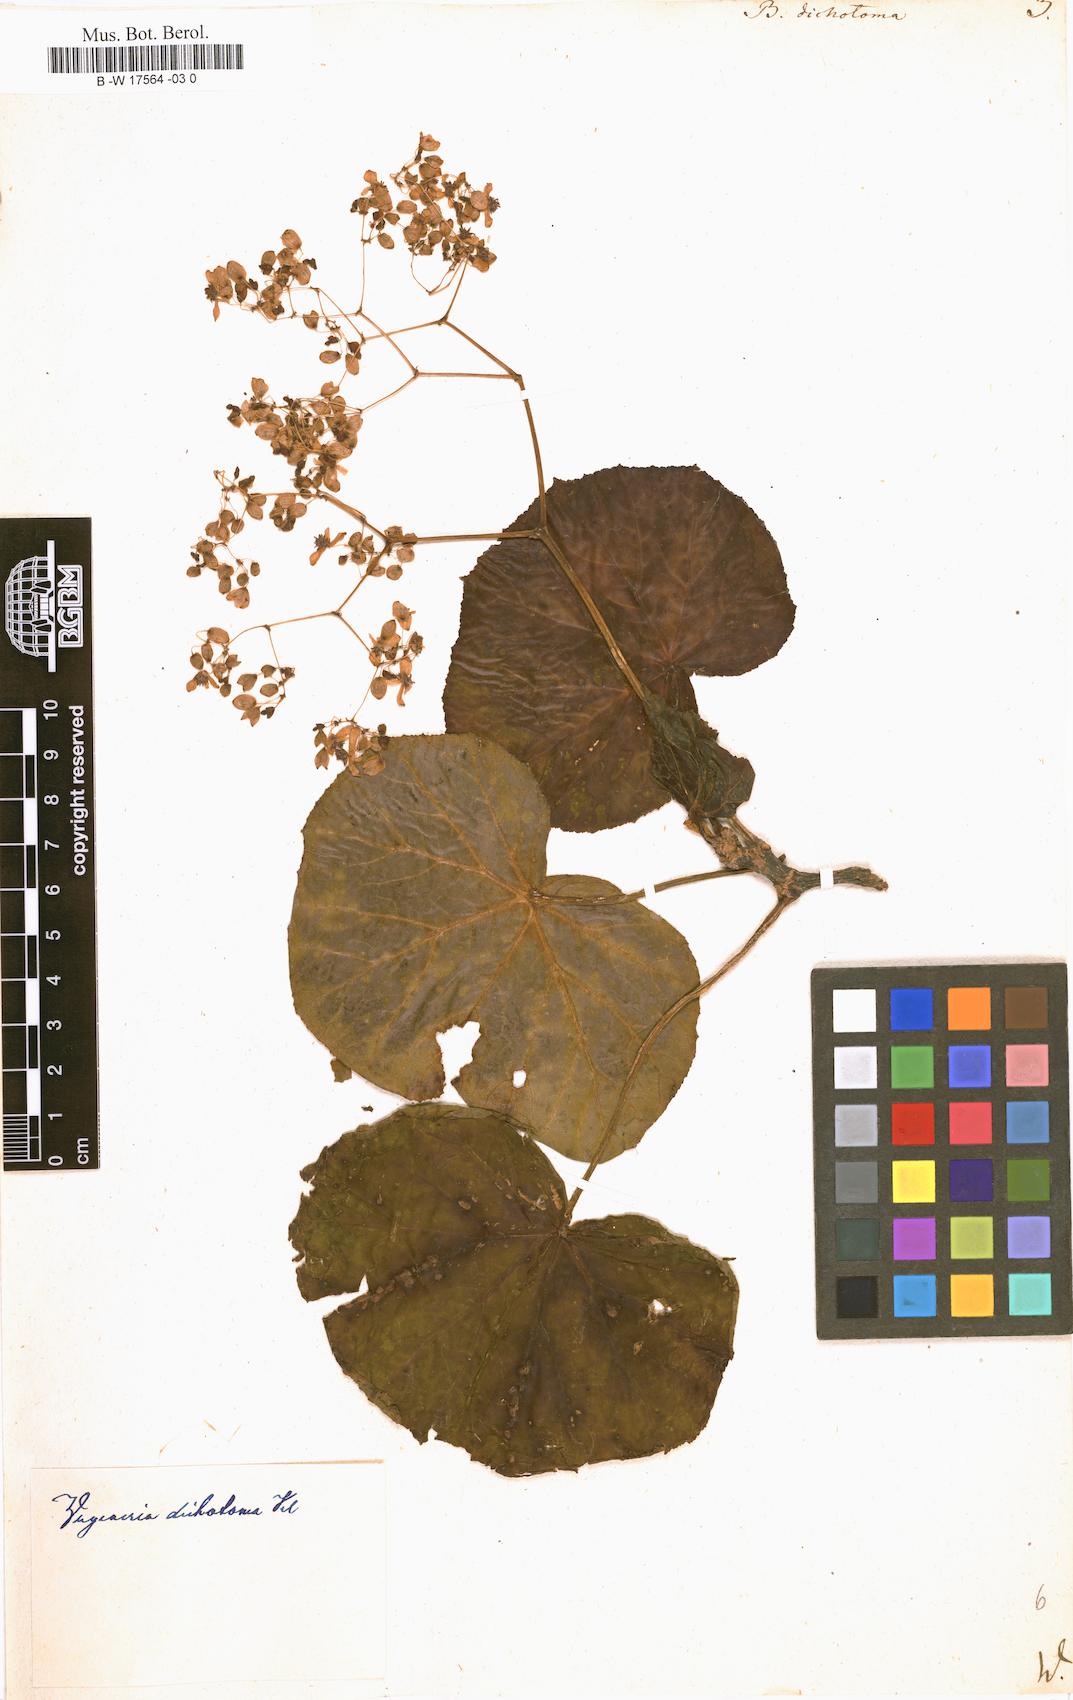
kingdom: Plantae
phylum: Tracheophyta
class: Magnoliopsida
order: Cucurbitales
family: Begoniaceae
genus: Begonia
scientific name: Begonia dichotoma
